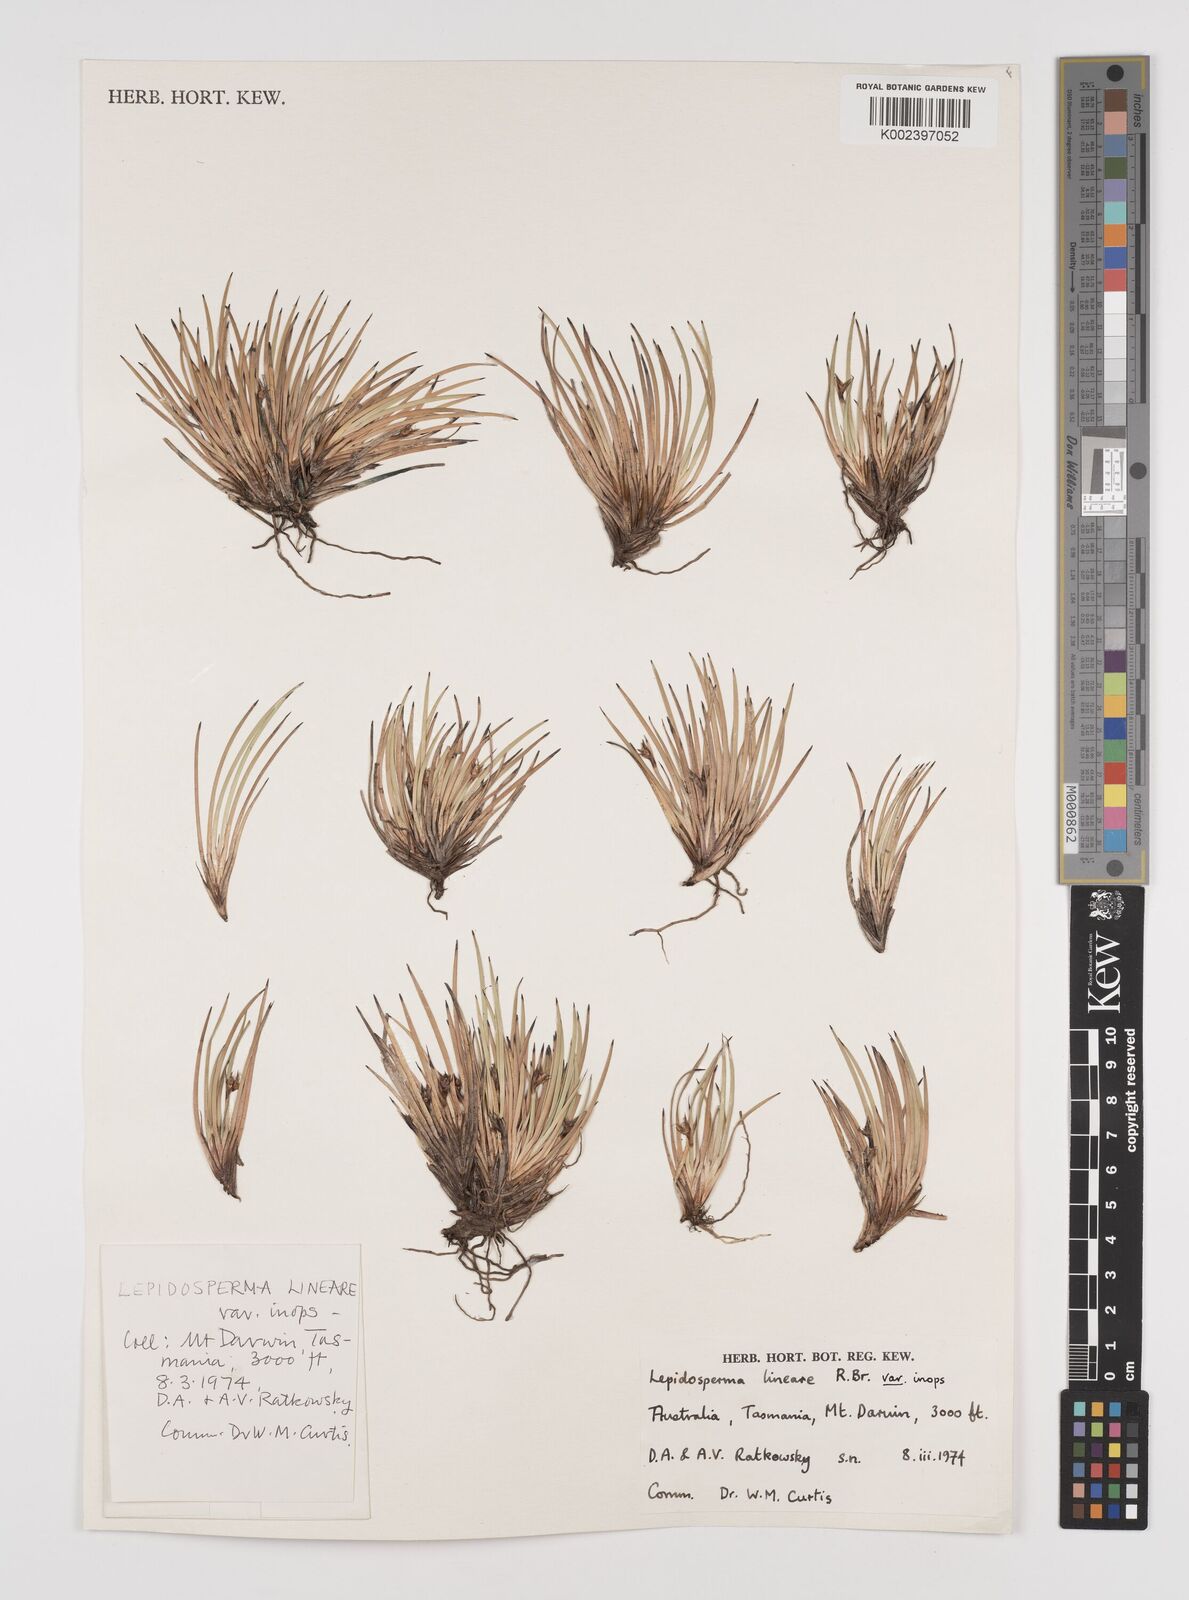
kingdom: Plantae
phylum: Tracheophyta
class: Liliopsida
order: Poales
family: Cyperaceae
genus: Lepidosperma
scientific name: Lepidosperma inops
